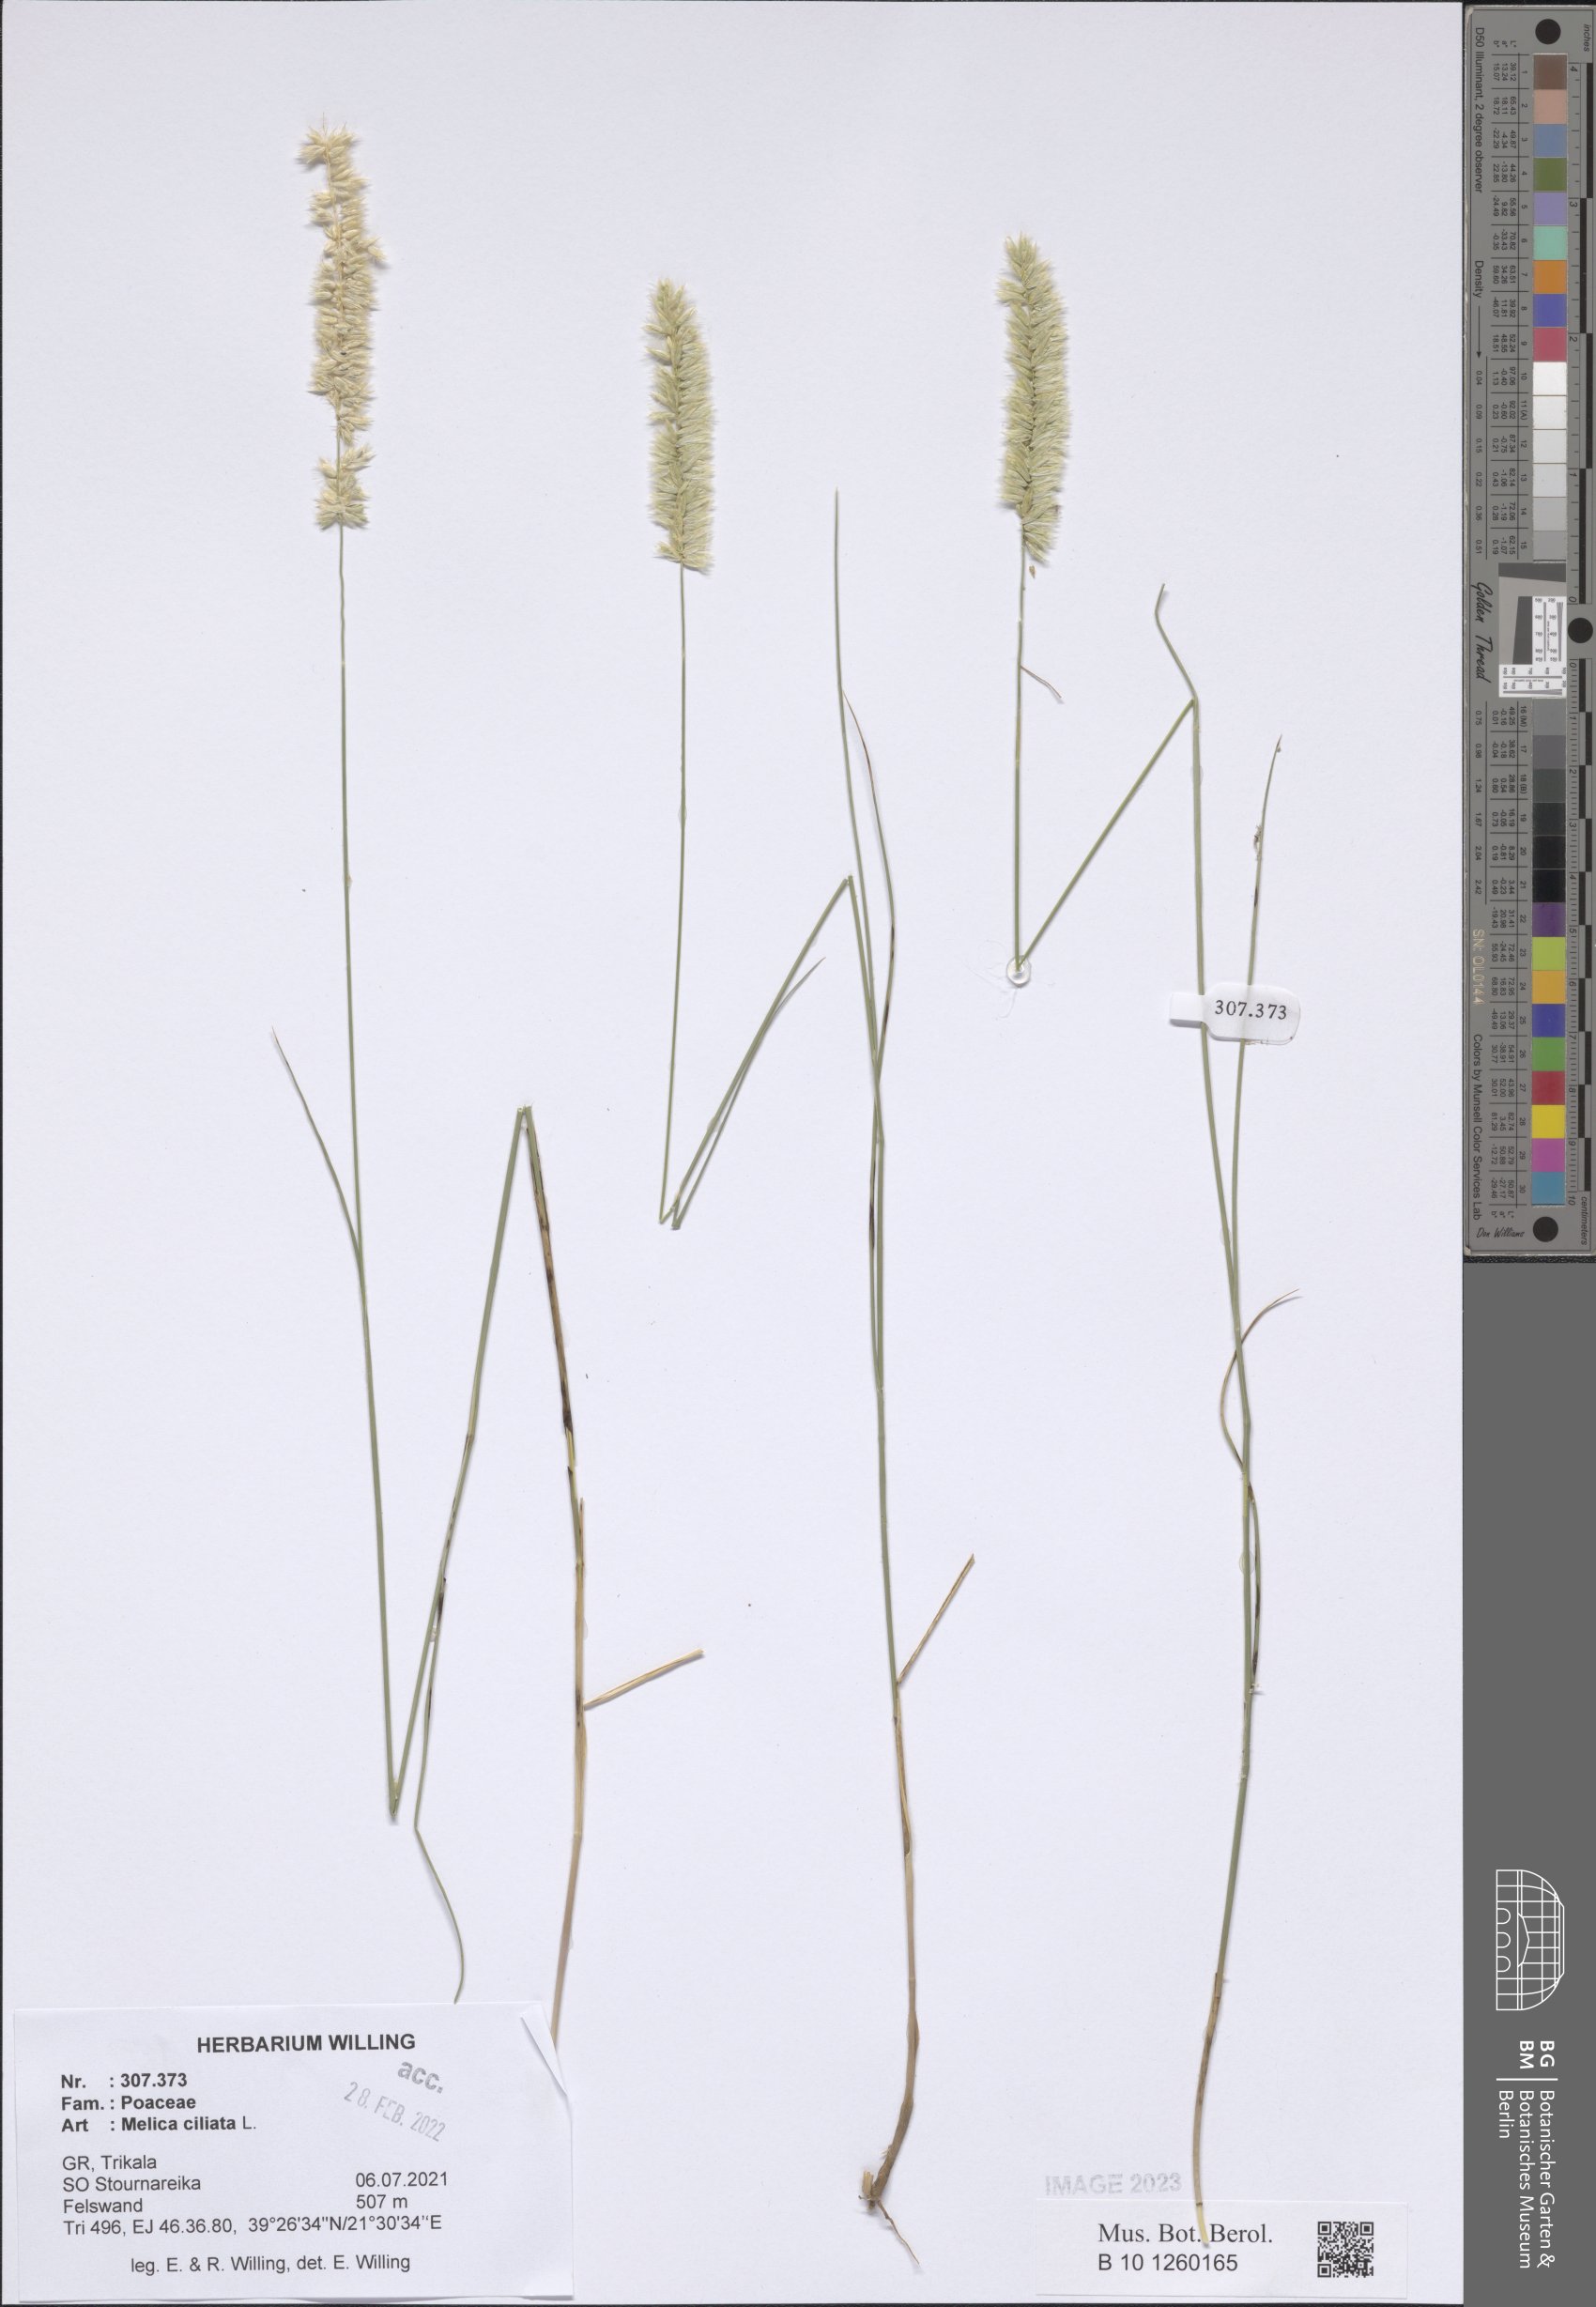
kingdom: Plantae
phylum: Tracheophyta
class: Liliopsida
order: Poales
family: Poaceae
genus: Melica
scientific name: Melica ciliata
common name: Hairy melicgrass
